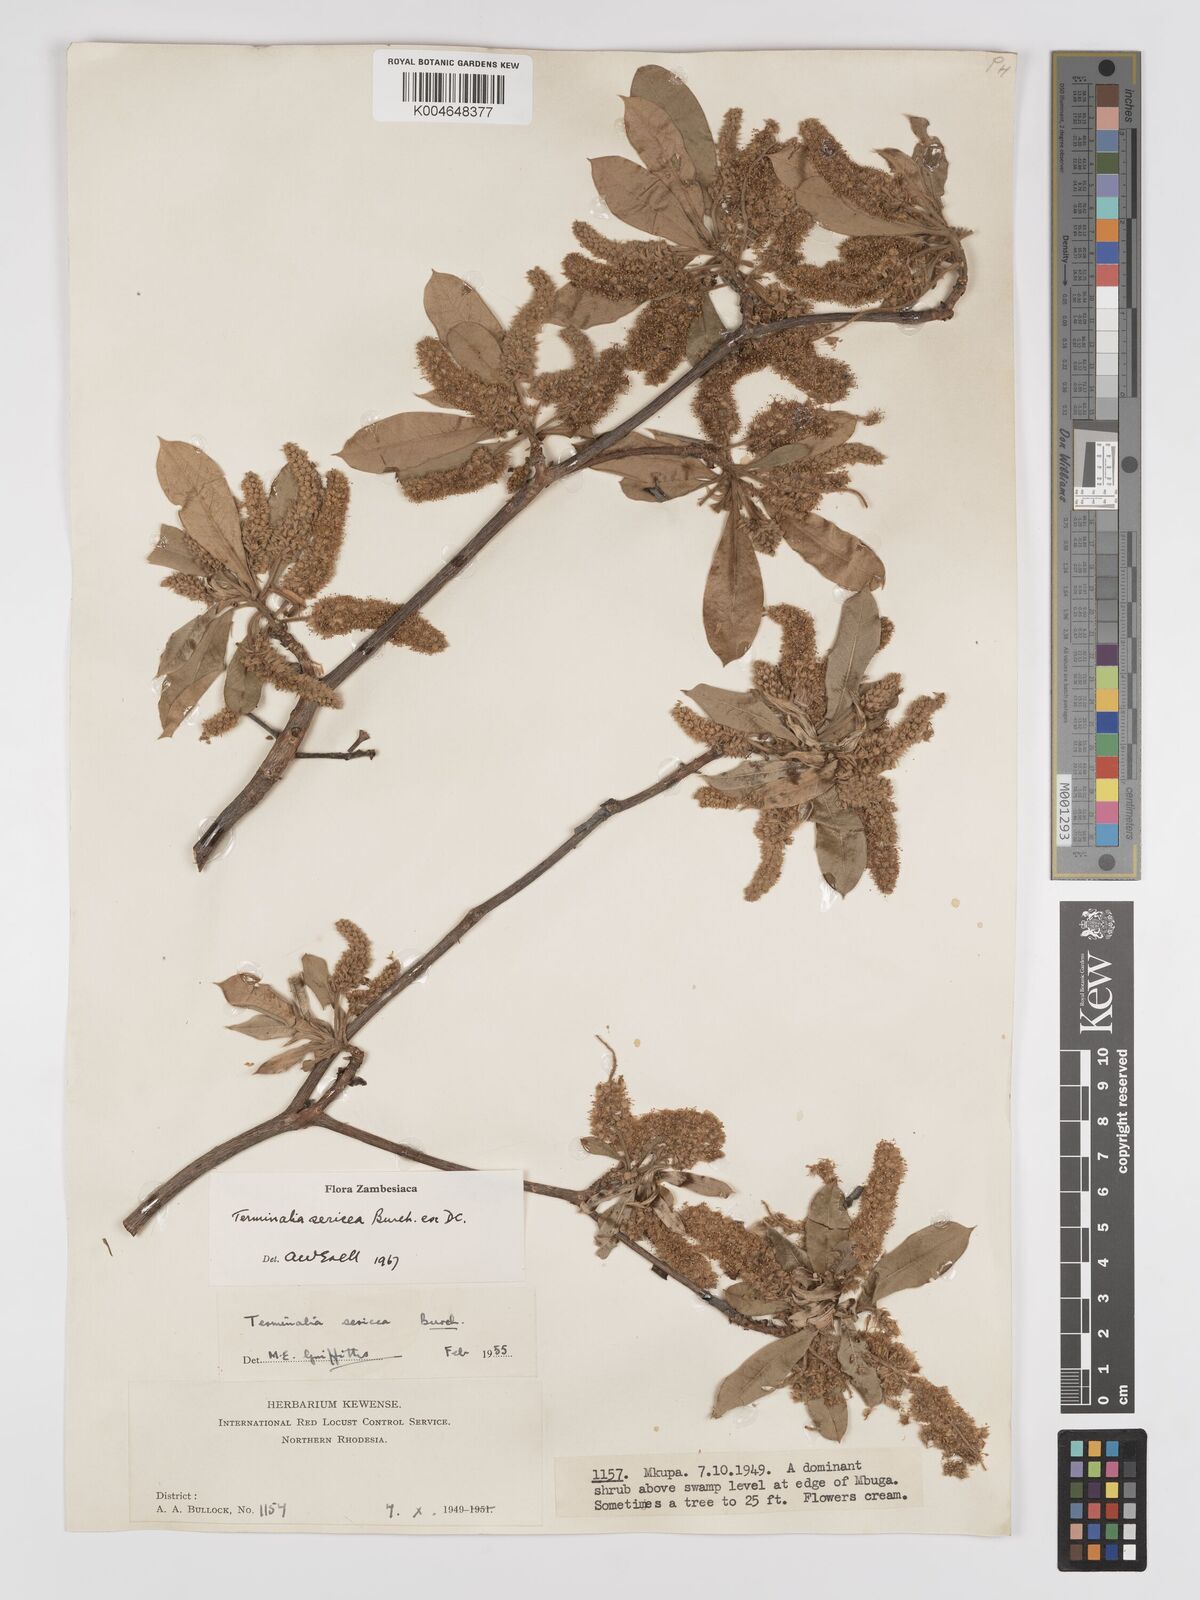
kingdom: Plantae
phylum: Tracheophyta
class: Magnoliopsida
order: Myrtales
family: Combretaceae
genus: Terminalia
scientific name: Terminalia
